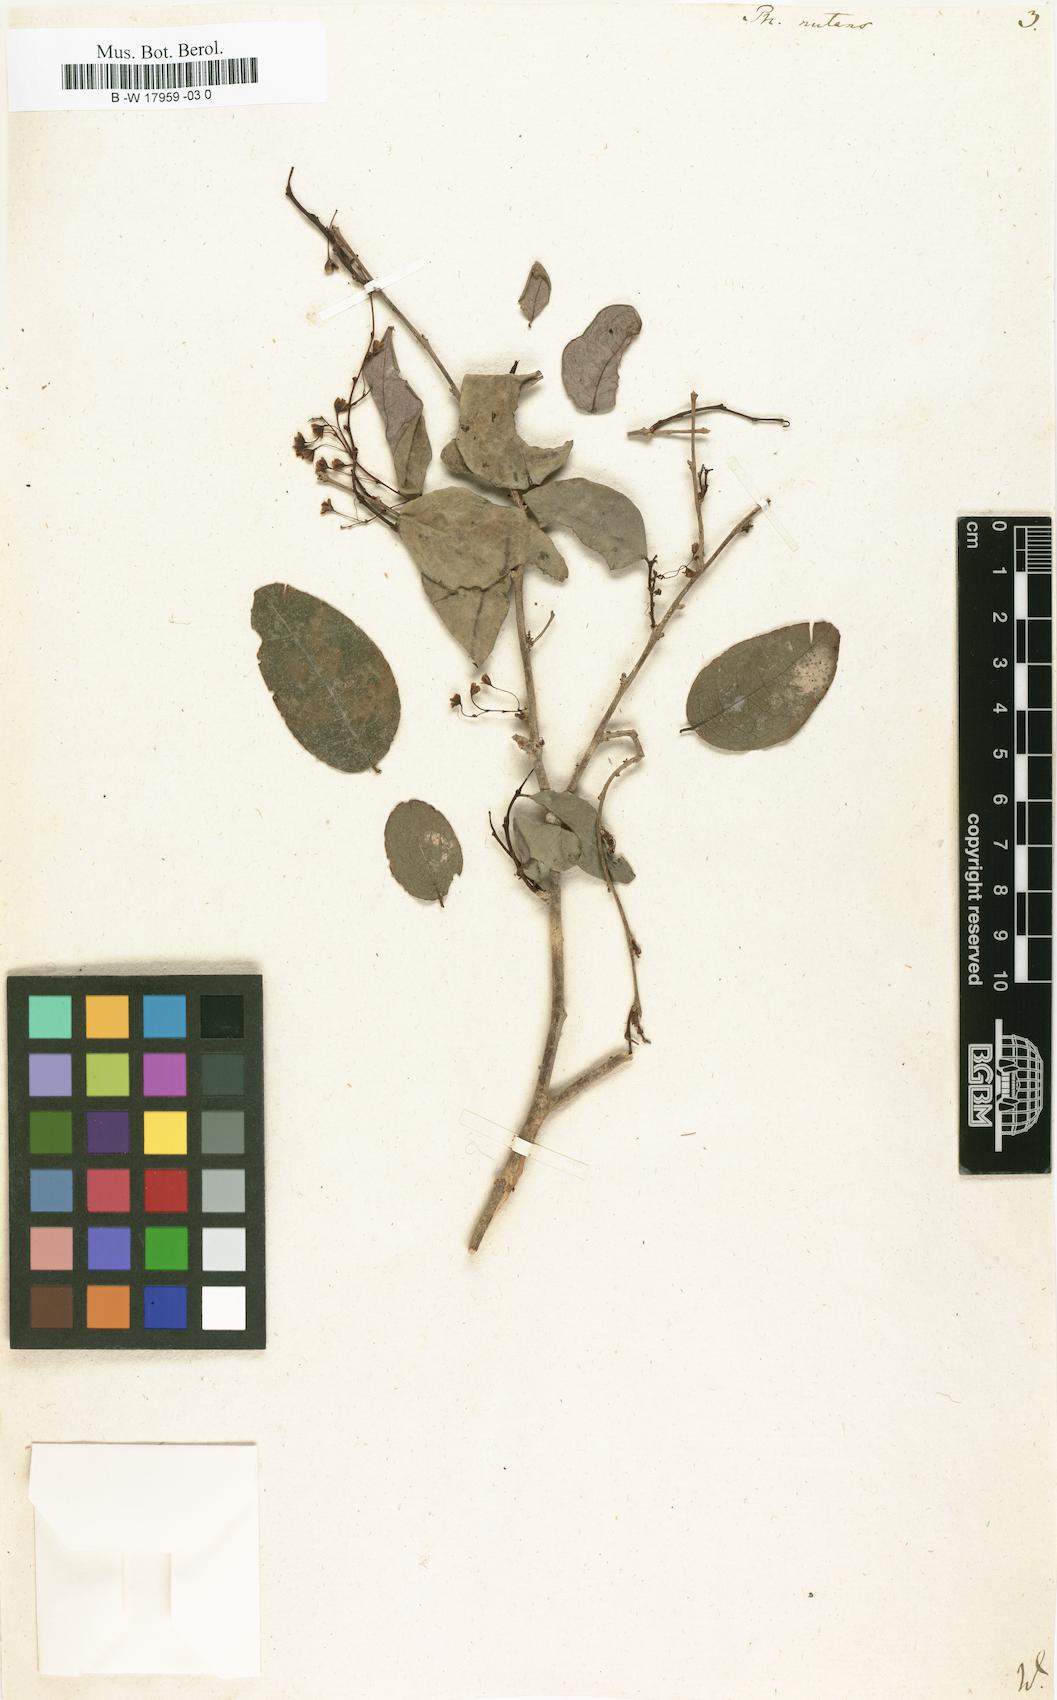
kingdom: Plantae
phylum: Tracheophyta
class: Magnoliopsida
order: Malpighiales
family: Phyllanthaceae
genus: Phyllanthus
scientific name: Phyllanthus nutans
